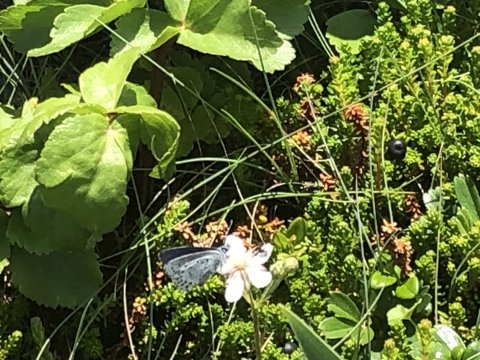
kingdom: Animalia
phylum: Arthropoda
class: Insecta
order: Lepidoptera
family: Lycaenidae
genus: Lycaeides
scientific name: Lycaeides idas
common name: Northern Blue
